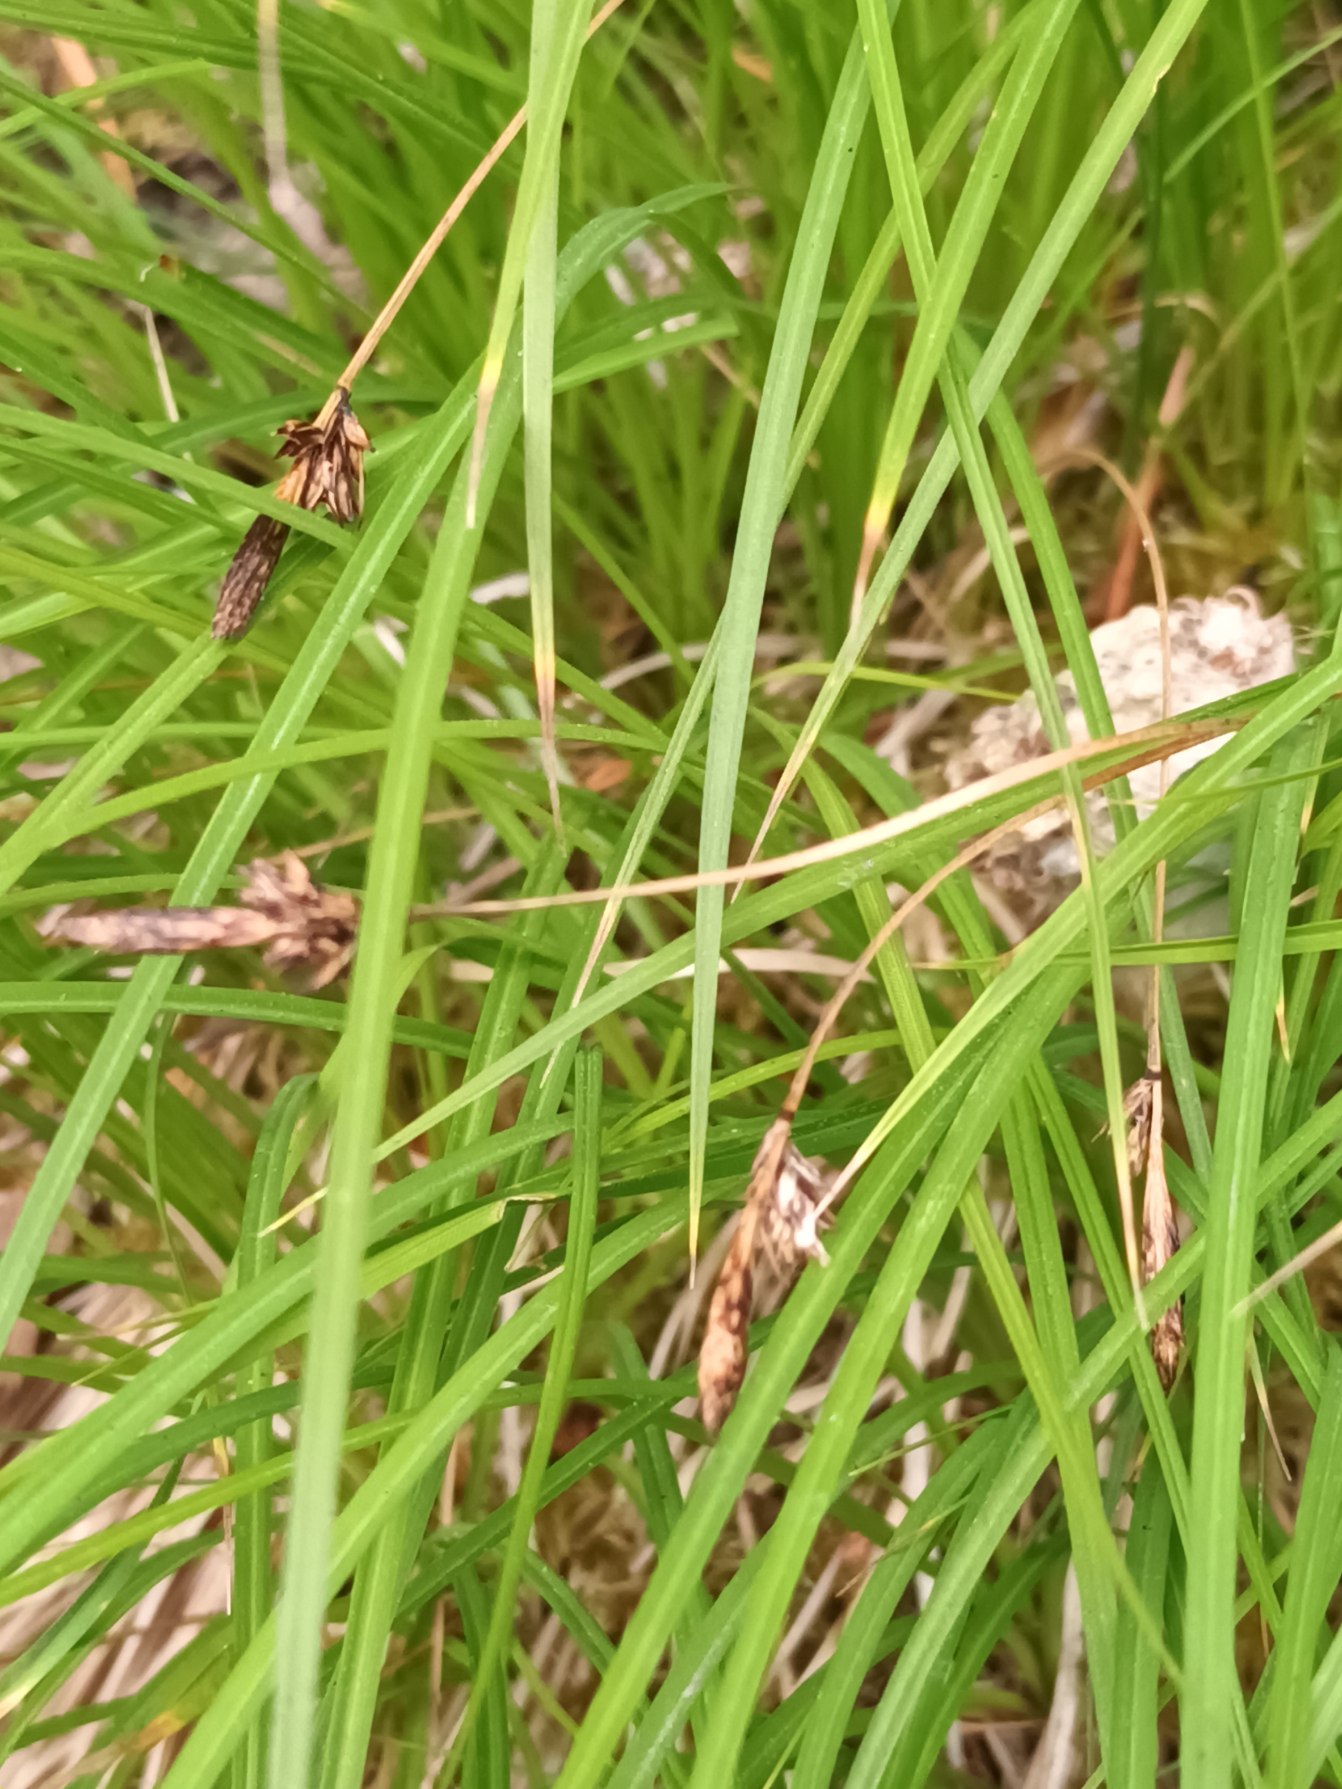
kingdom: Plantae
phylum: Tracheophyta
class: Liliopsida
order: Poales
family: Cyperaceae
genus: Carex
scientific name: Carex montana
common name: Bakke-star
